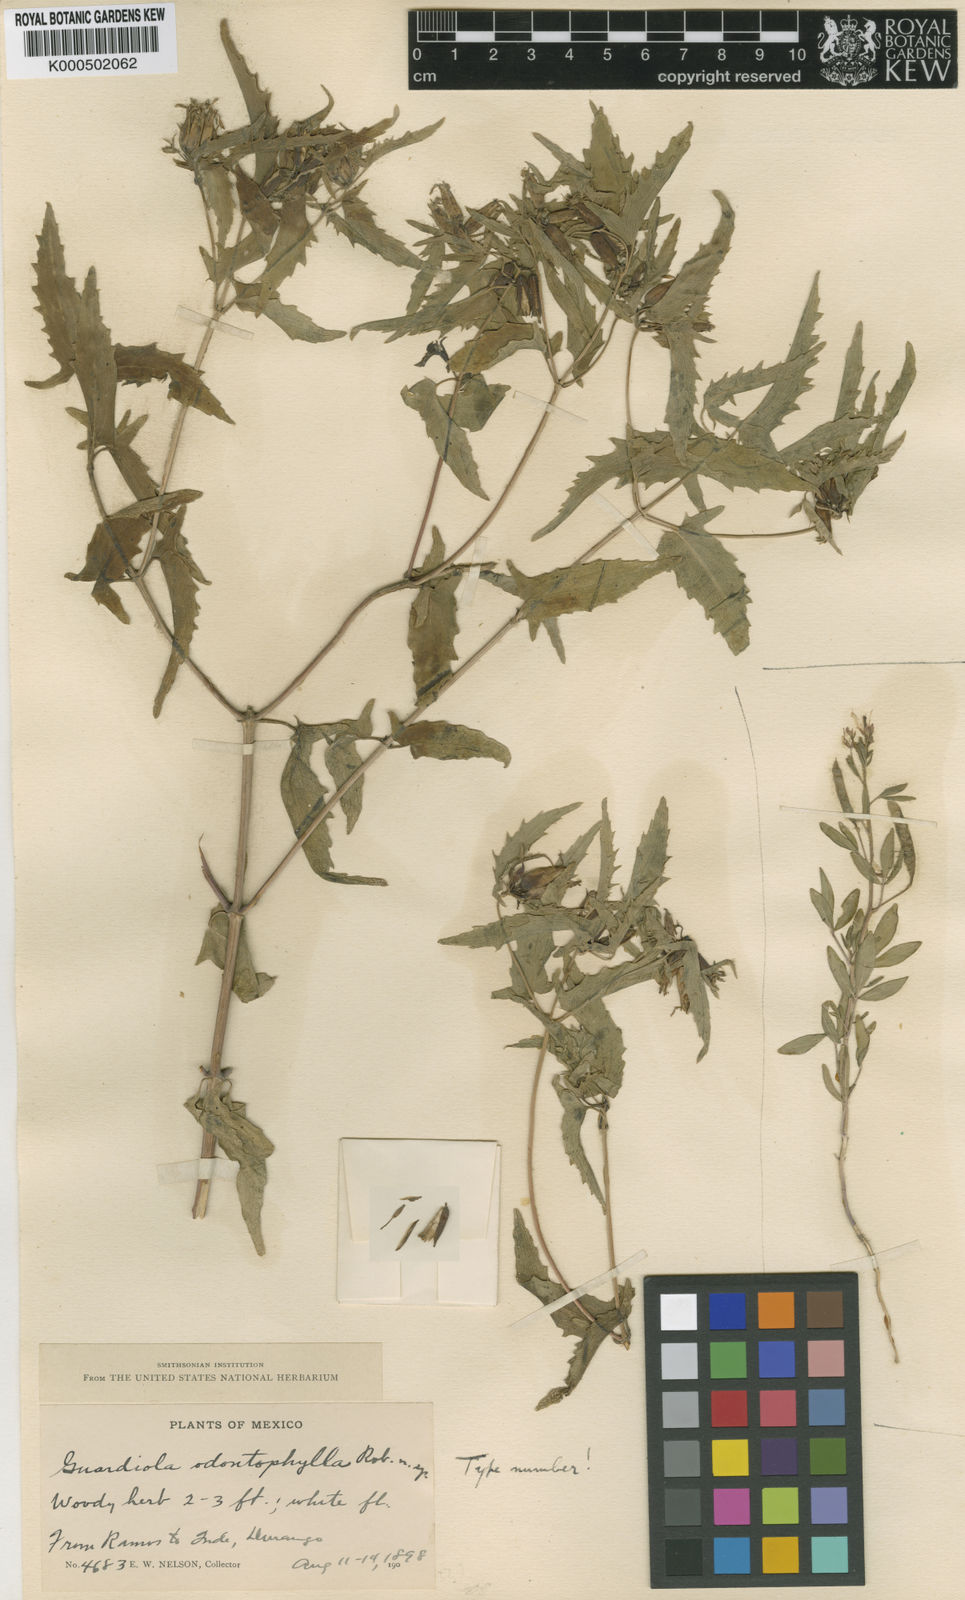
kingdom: Plantae
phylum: Tracheophyta
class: Magnoliopsida
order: Asterales
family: Asteraceae
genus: Guardiola
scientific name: Guardiola odontophylla
